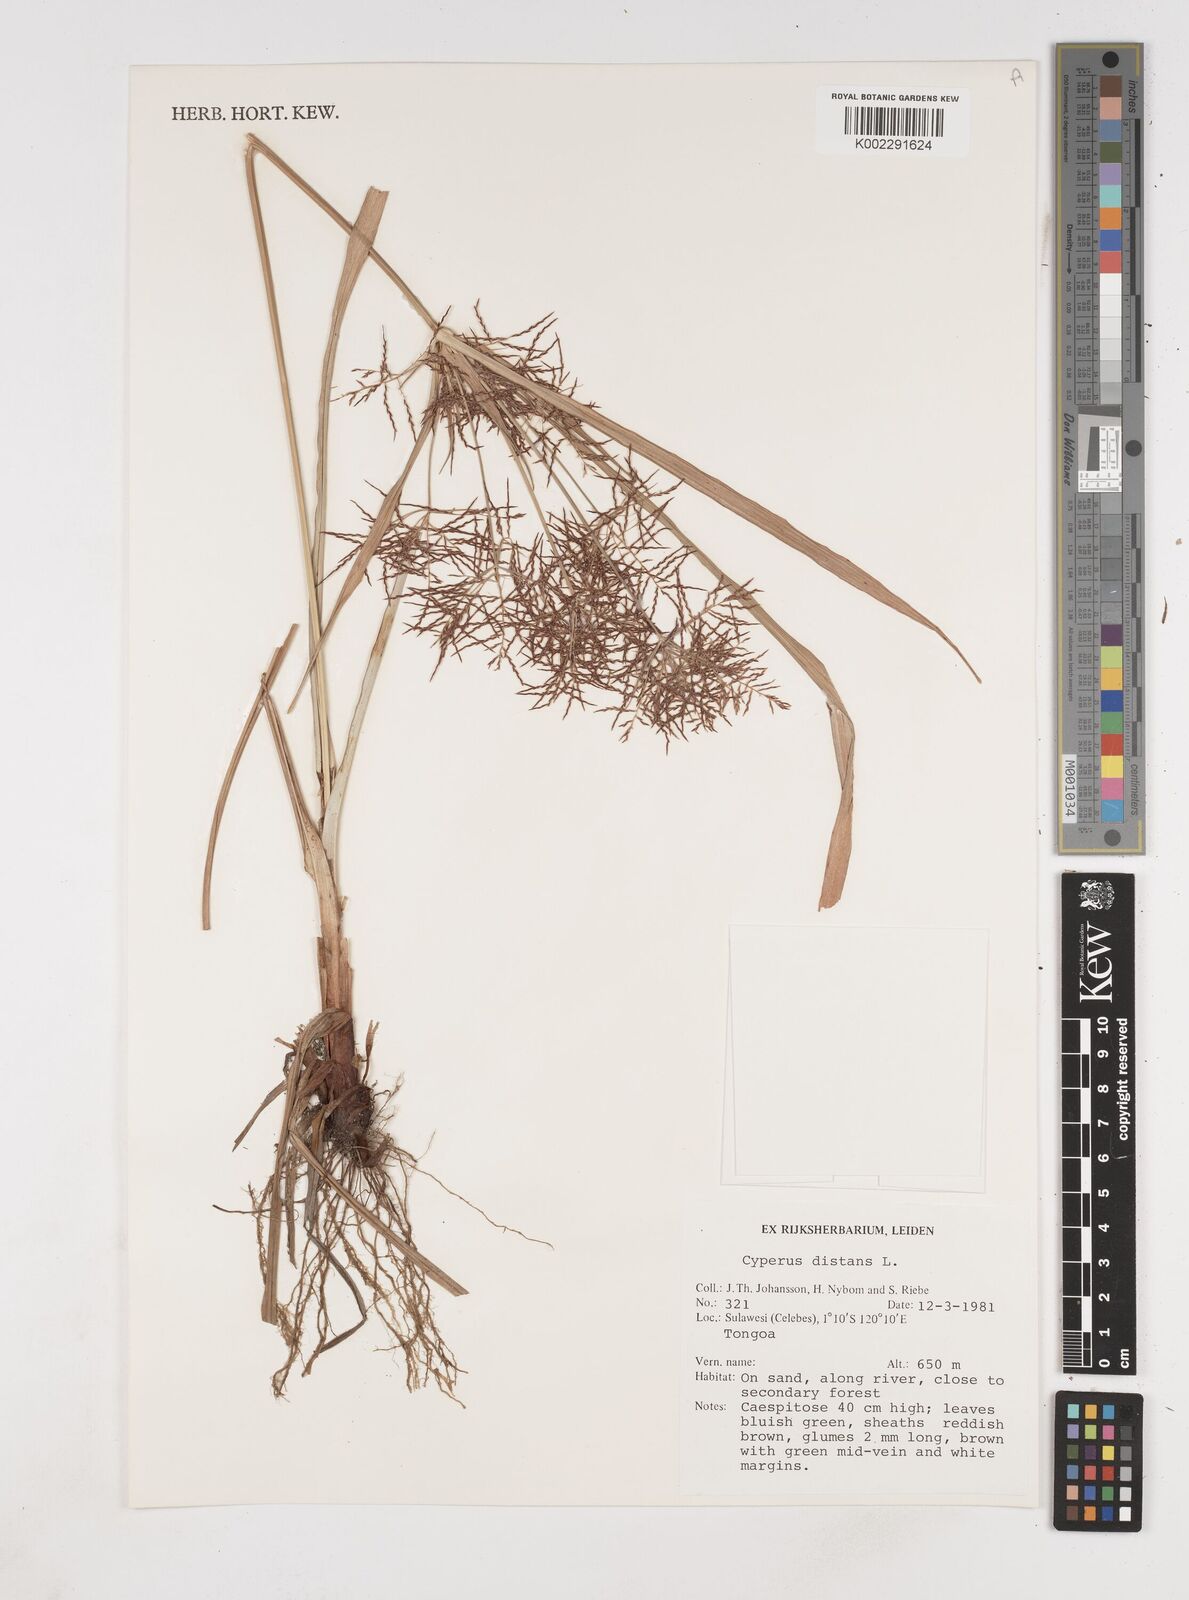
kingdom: Plantae
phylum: Tracheophyta
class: Liliopsida
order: Poales
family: Cyperaceae
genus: Cyperus
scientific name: Cyperus distans
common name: Slender cyperus
